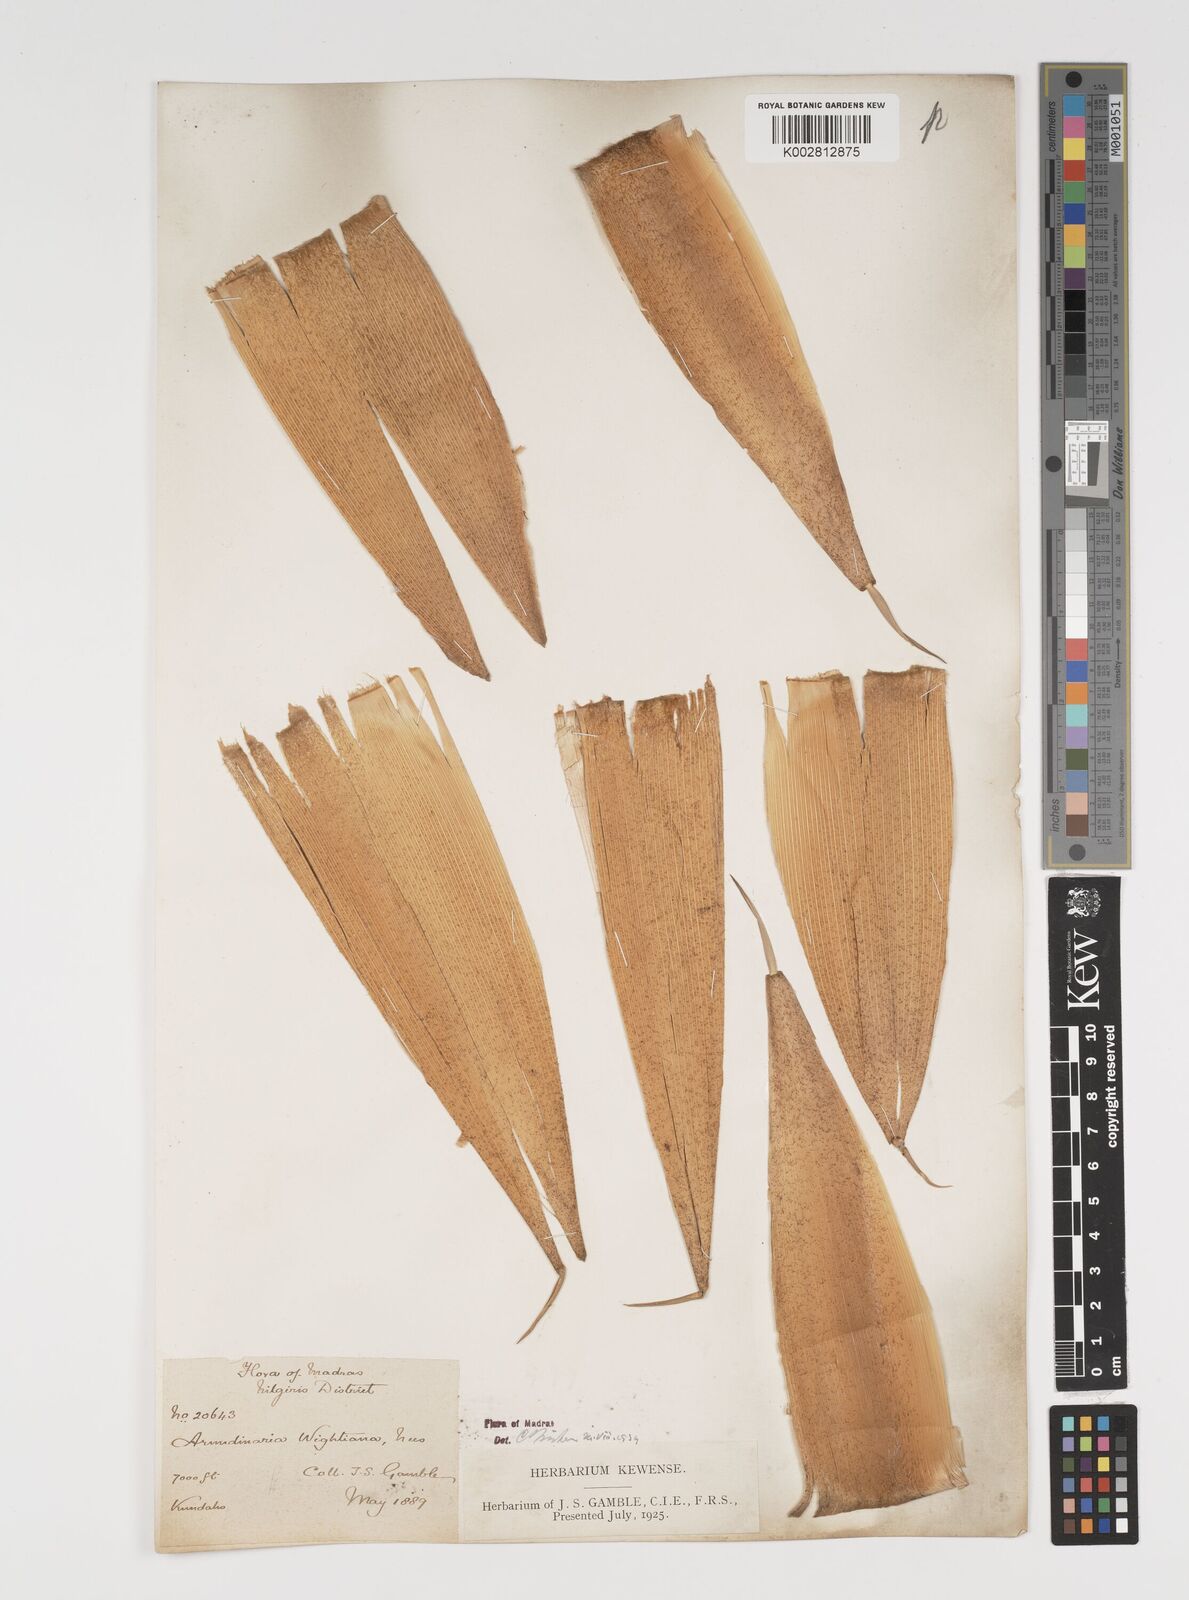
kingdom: Plantae
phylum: Tracheophyta
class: Liliopsida
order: Poales
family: Poaceae
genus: Kuruna
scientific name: Kuruna wightiana
